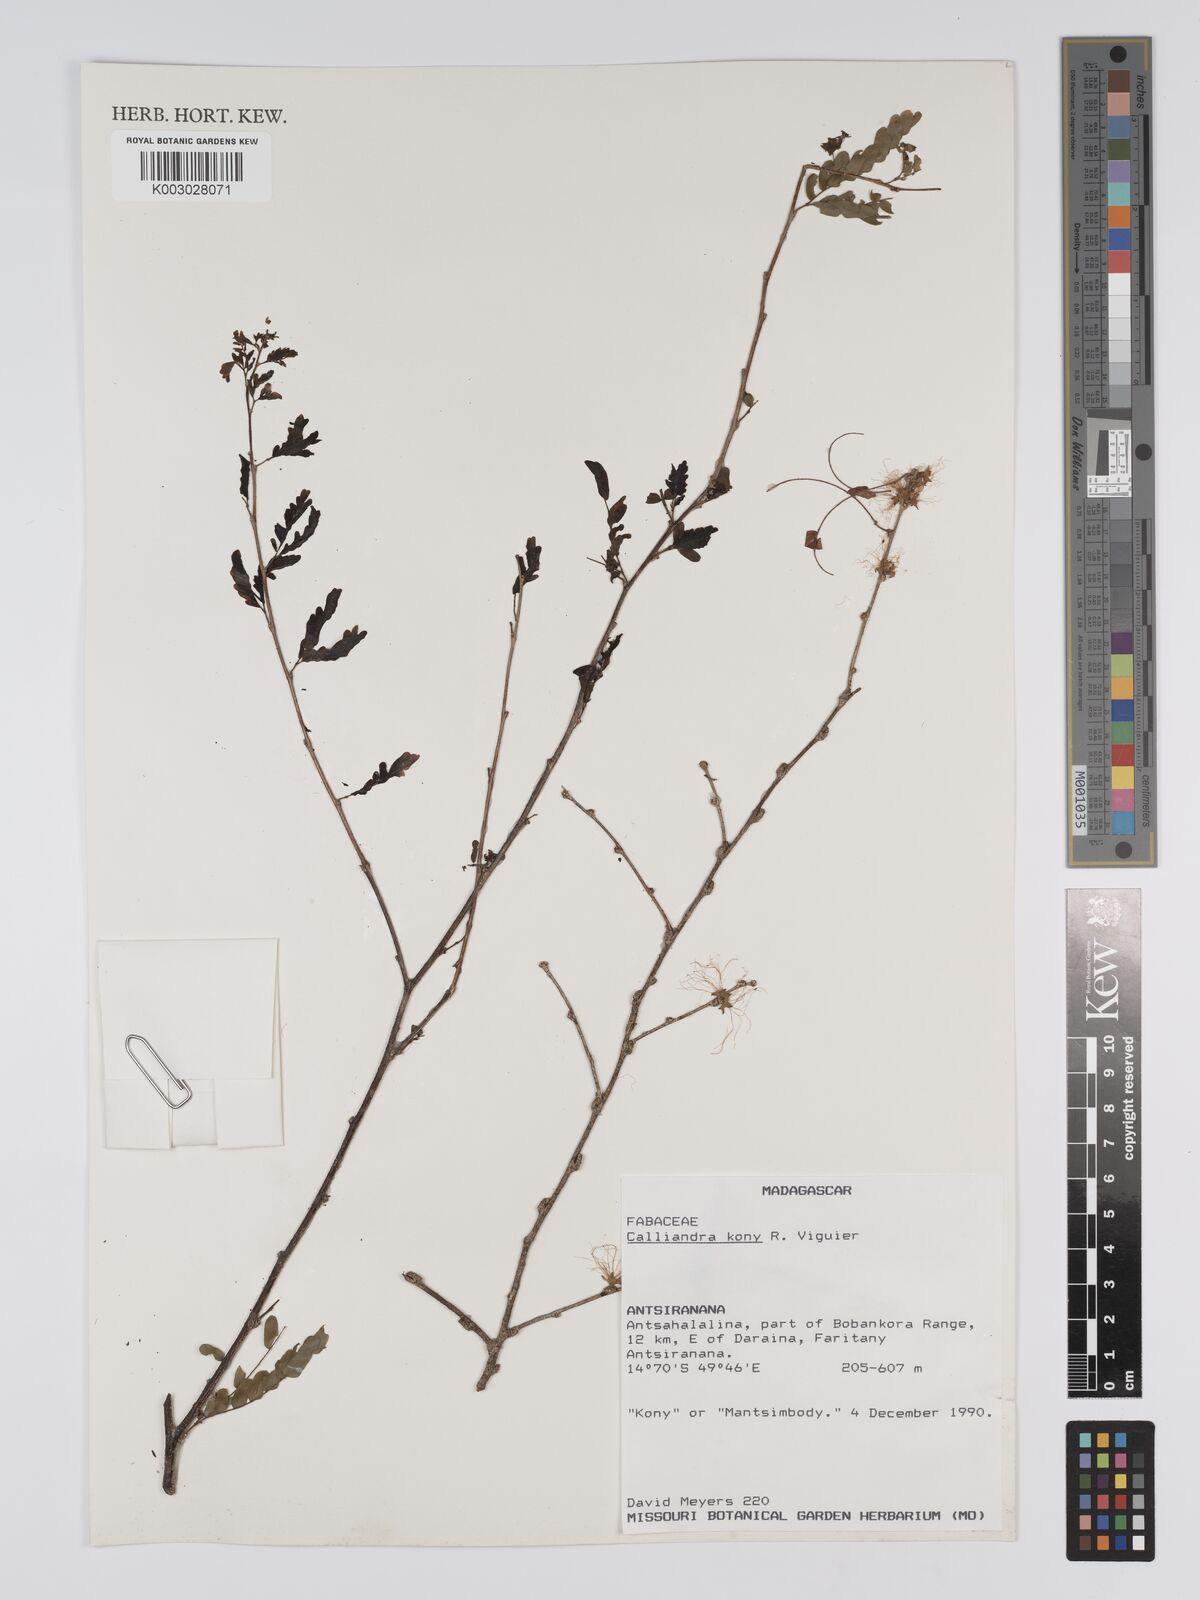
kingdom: Plantae
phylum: Tracheophyta
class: Magnoliopsida
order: Fabales
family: Fabaceae
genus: Viguieranthus
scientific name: Viguieranthus kony
